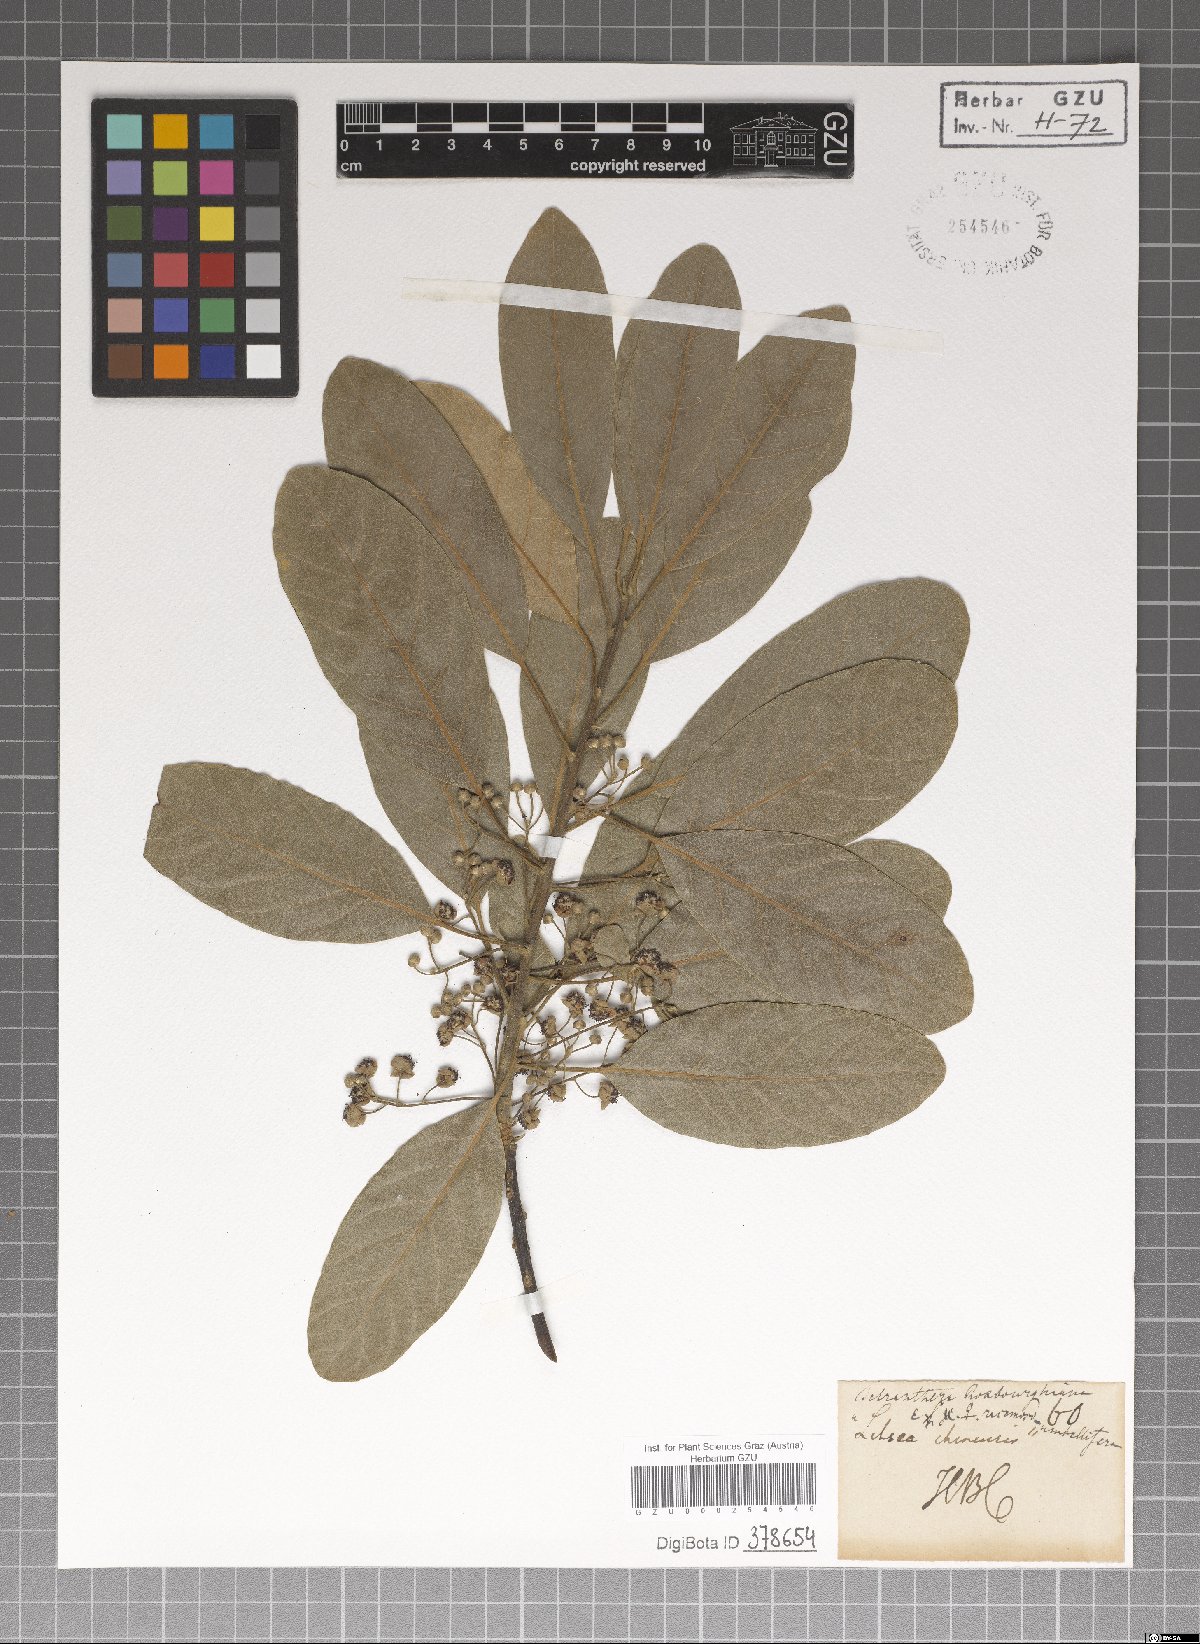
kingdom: Plantae
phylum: Tracheophyta
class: Magnoliopsida
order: Laurales
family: Lauraceae
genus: Litsea
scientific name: Litsea glutinosa
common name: Indian-laurel
